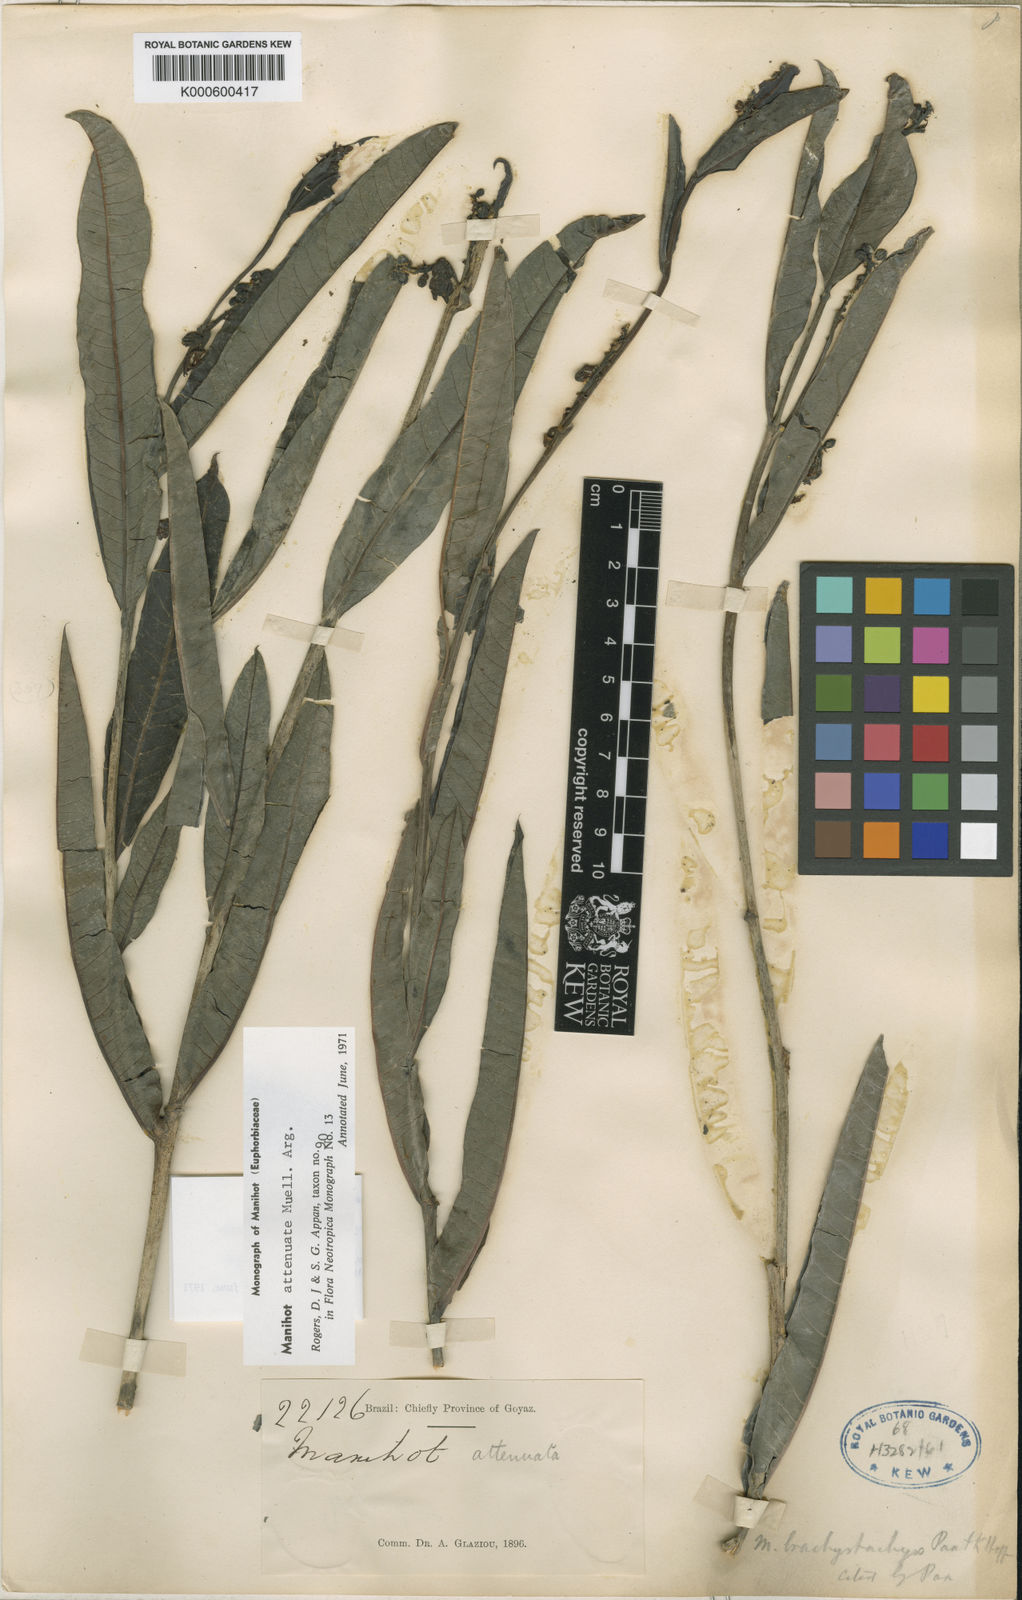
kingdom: Plantae
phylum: Tracheophyta
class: Magnoliopsida
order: Malpighiales
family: Euphorbiaceae
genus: Manihot
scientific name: Manihot
